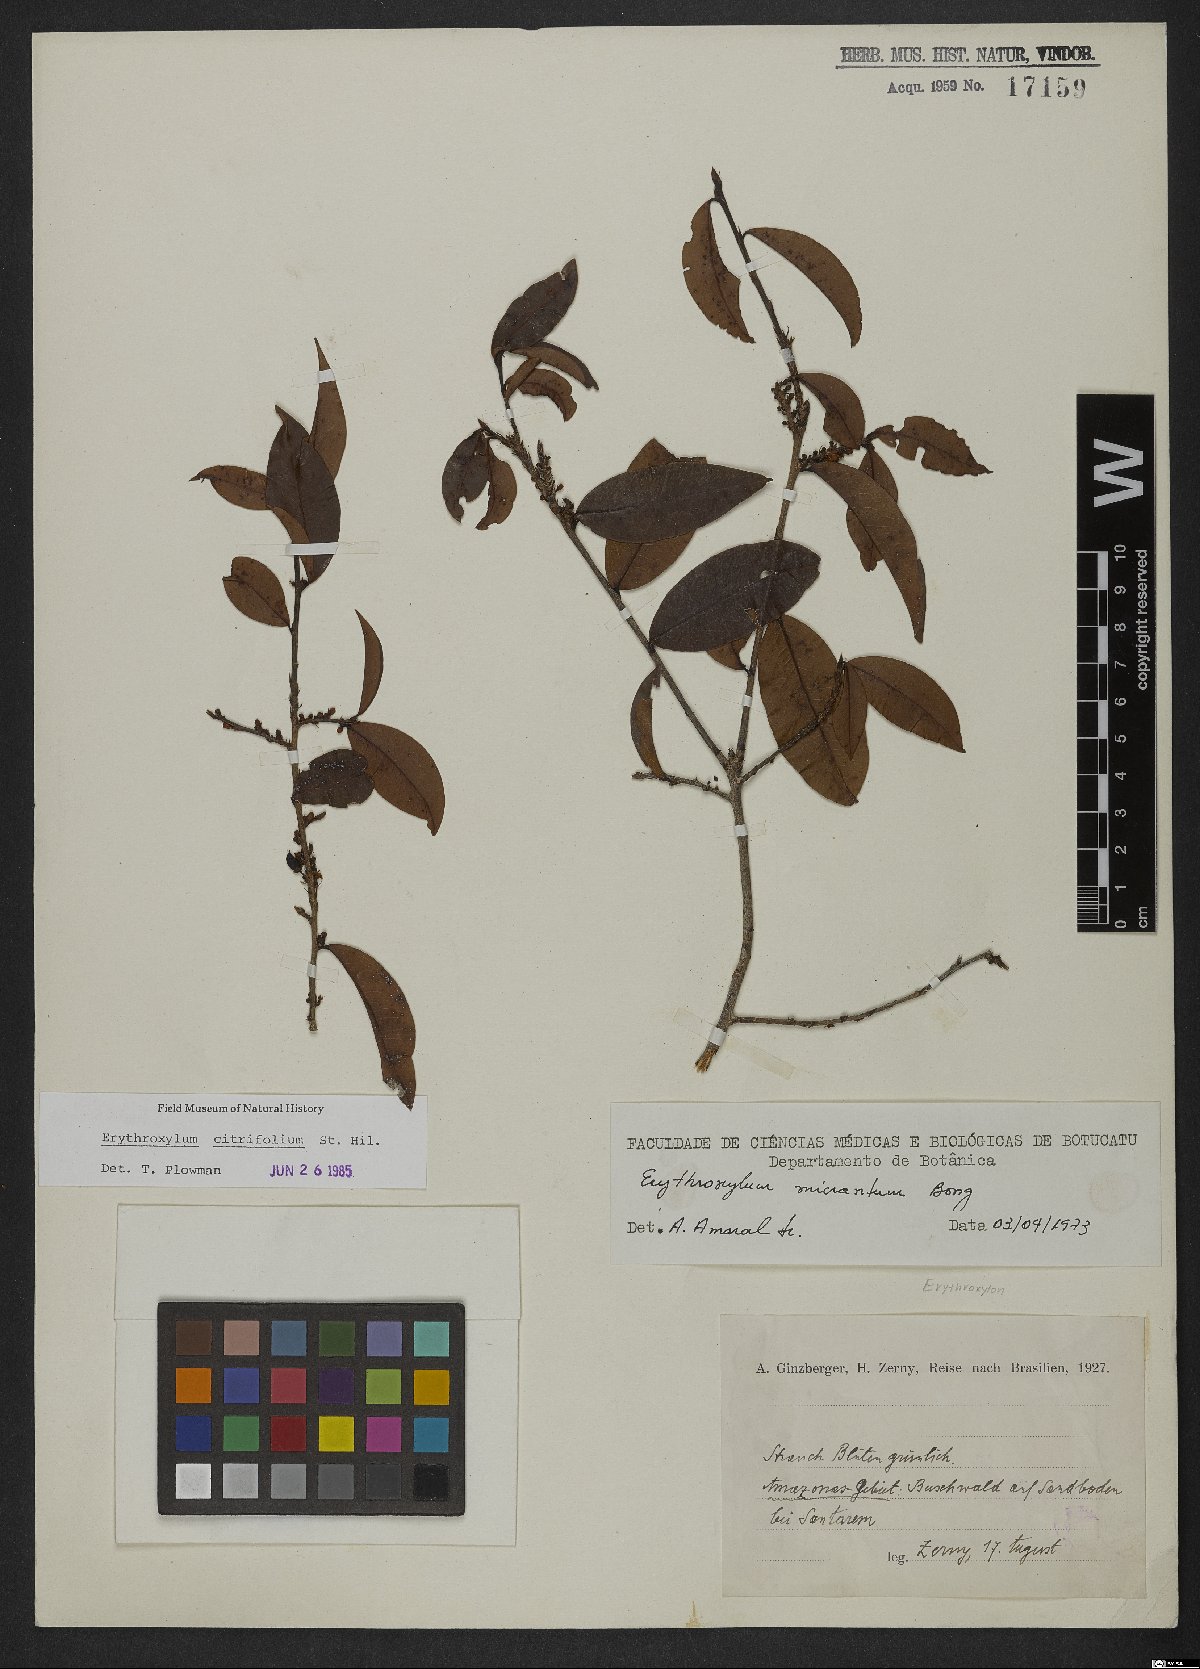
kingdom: Plantae
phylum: Tracheophyta
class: Magnoliopsida
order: Malpighiales
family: Erythroxylaceae
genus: Erythroxylum
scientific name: Erythroxylum citrifolium
